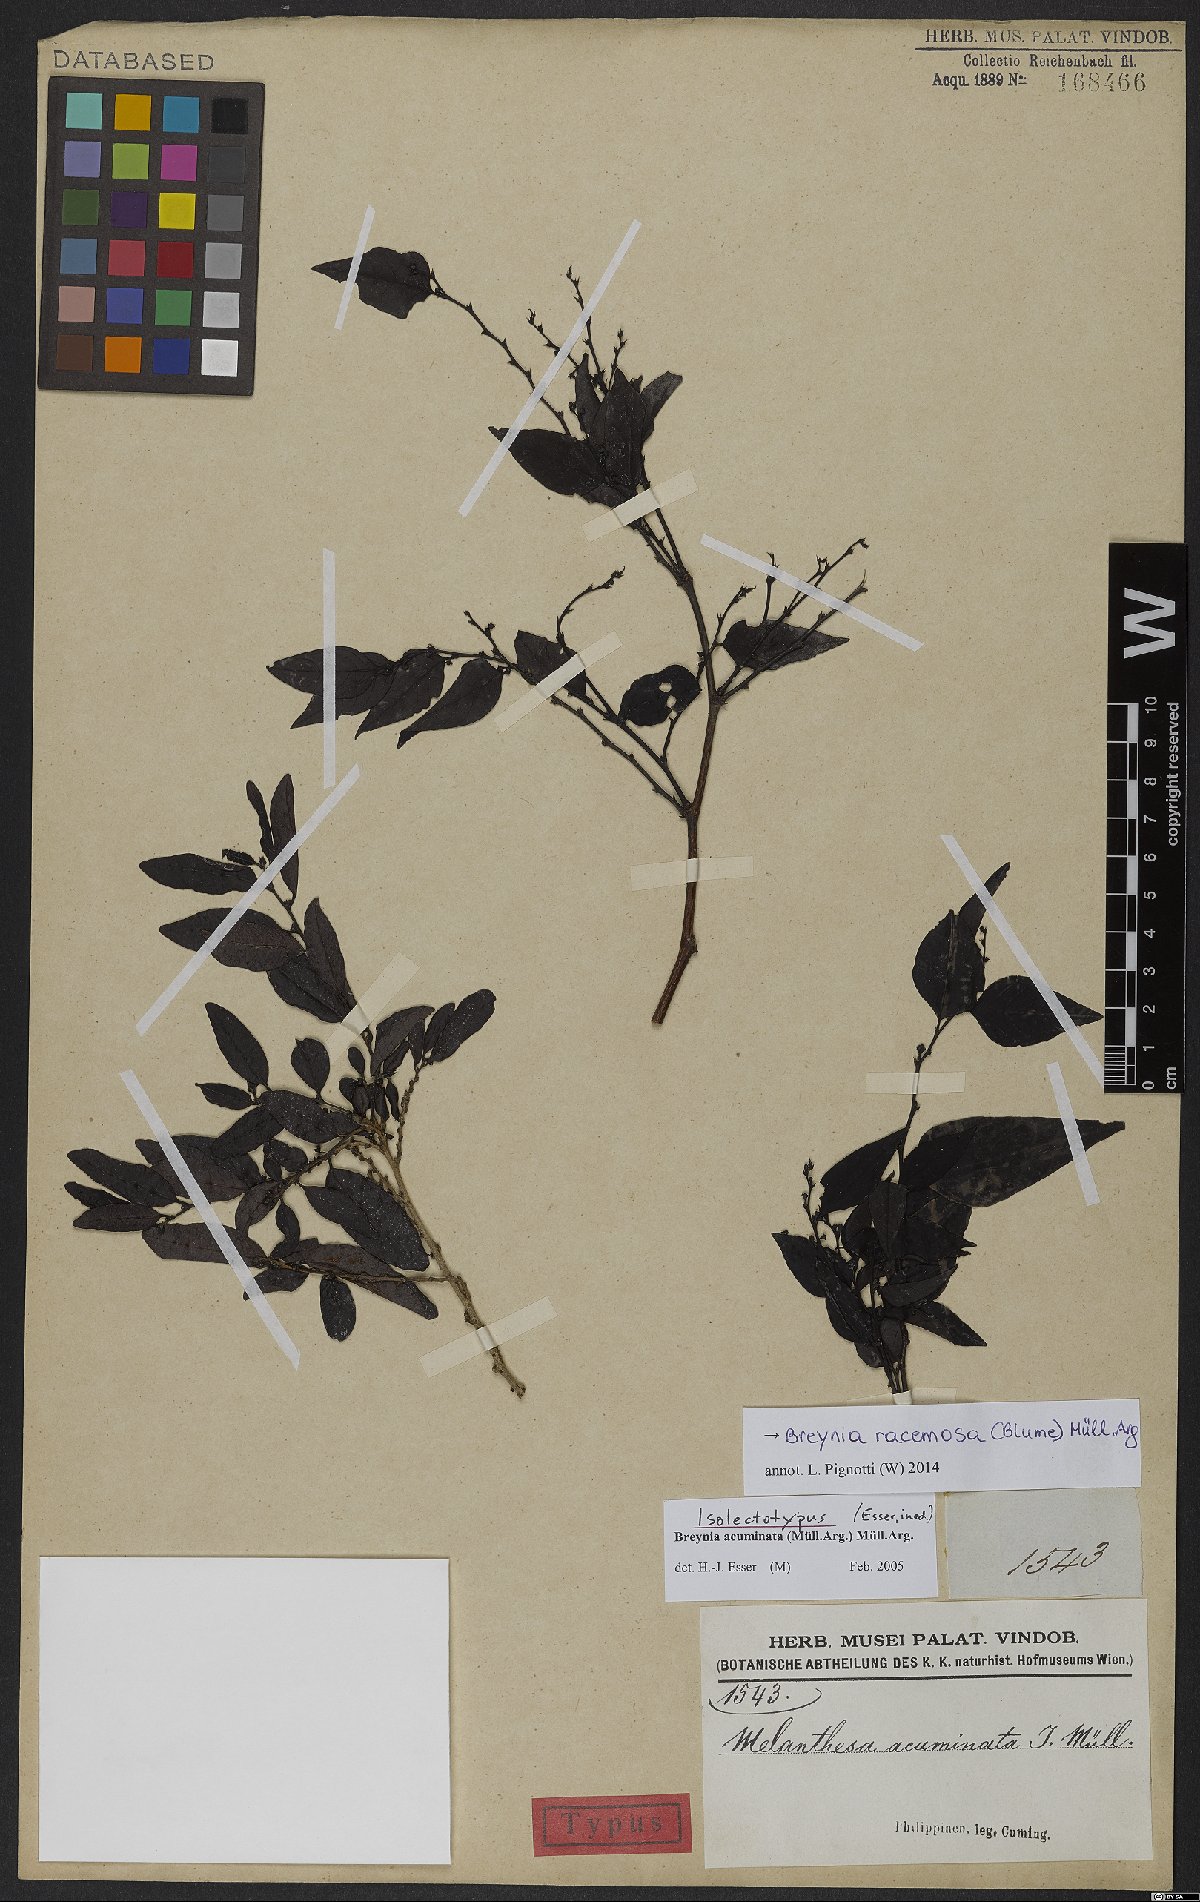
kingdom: Plantae
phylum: Tracheophyta
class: Magnoliopsida
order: Malpighiales
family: Phyllanthaceae
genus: Breynia
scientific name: Breynia racemosa
